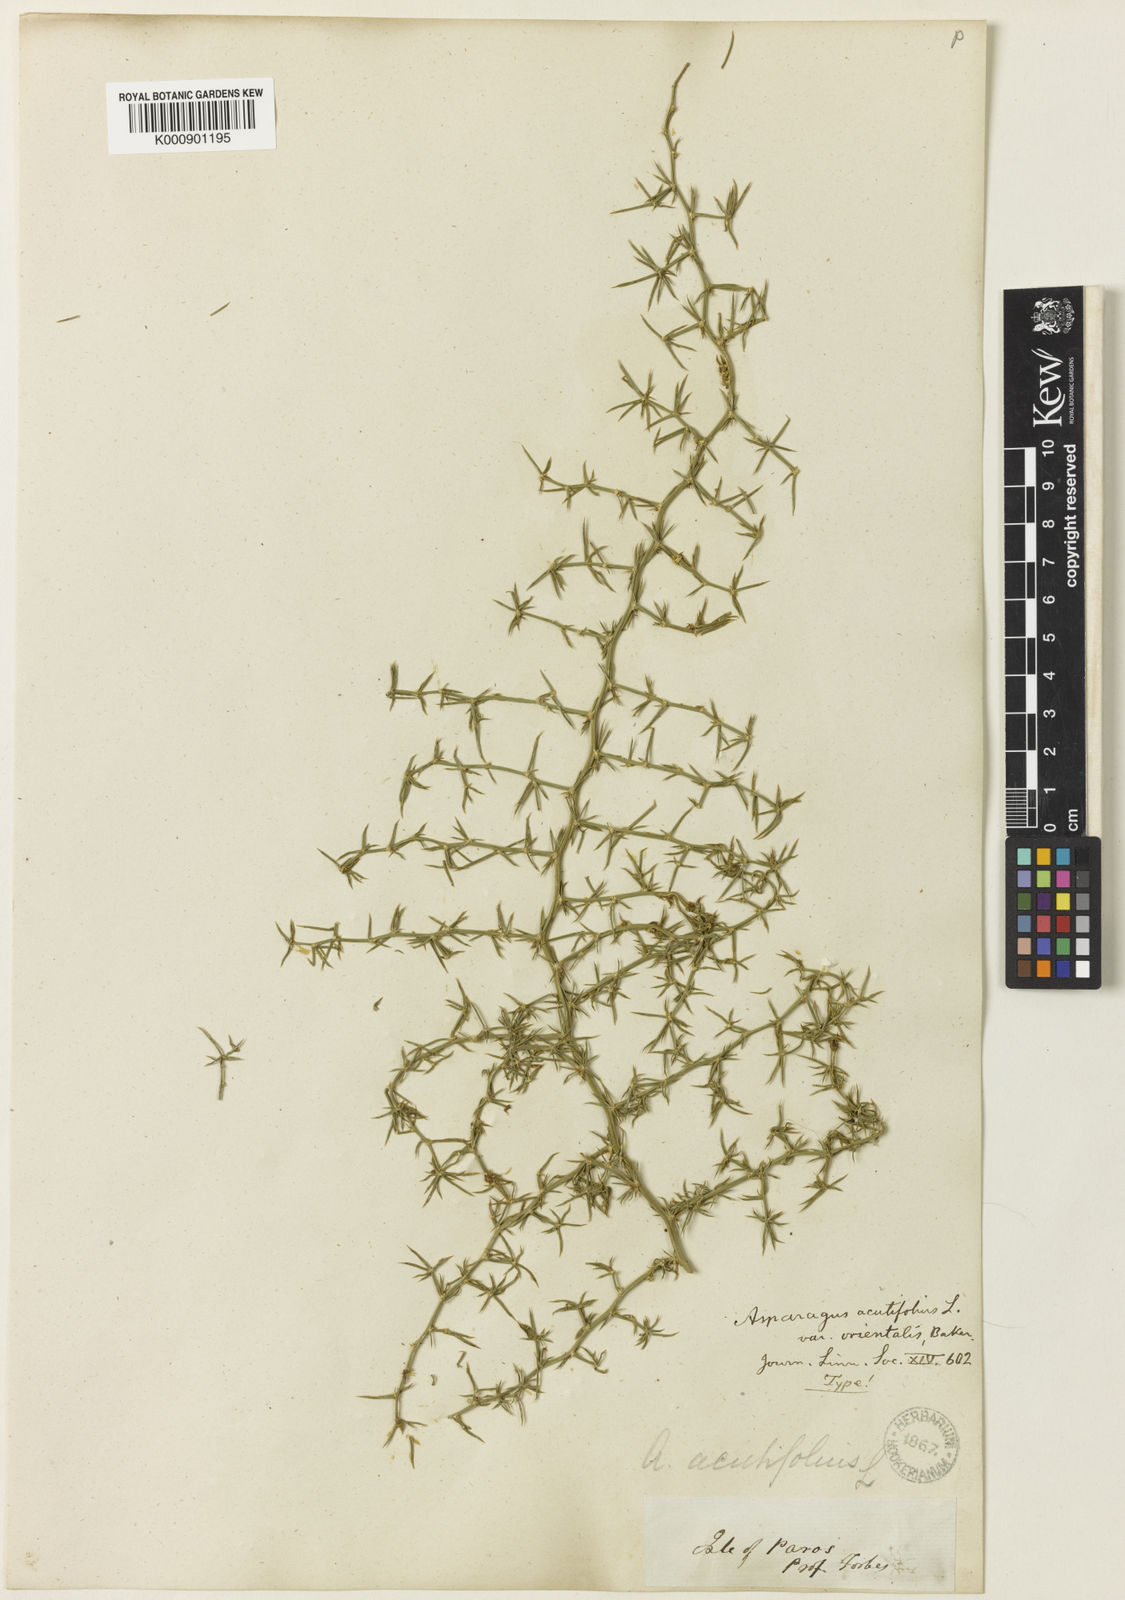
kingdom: Plantae
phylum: Tracheophyta
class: Liliopsida
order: Asparagales
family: Asparagaceae
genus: Asparagus
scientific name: Asparagus acutifolius
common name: Wild asparagus
